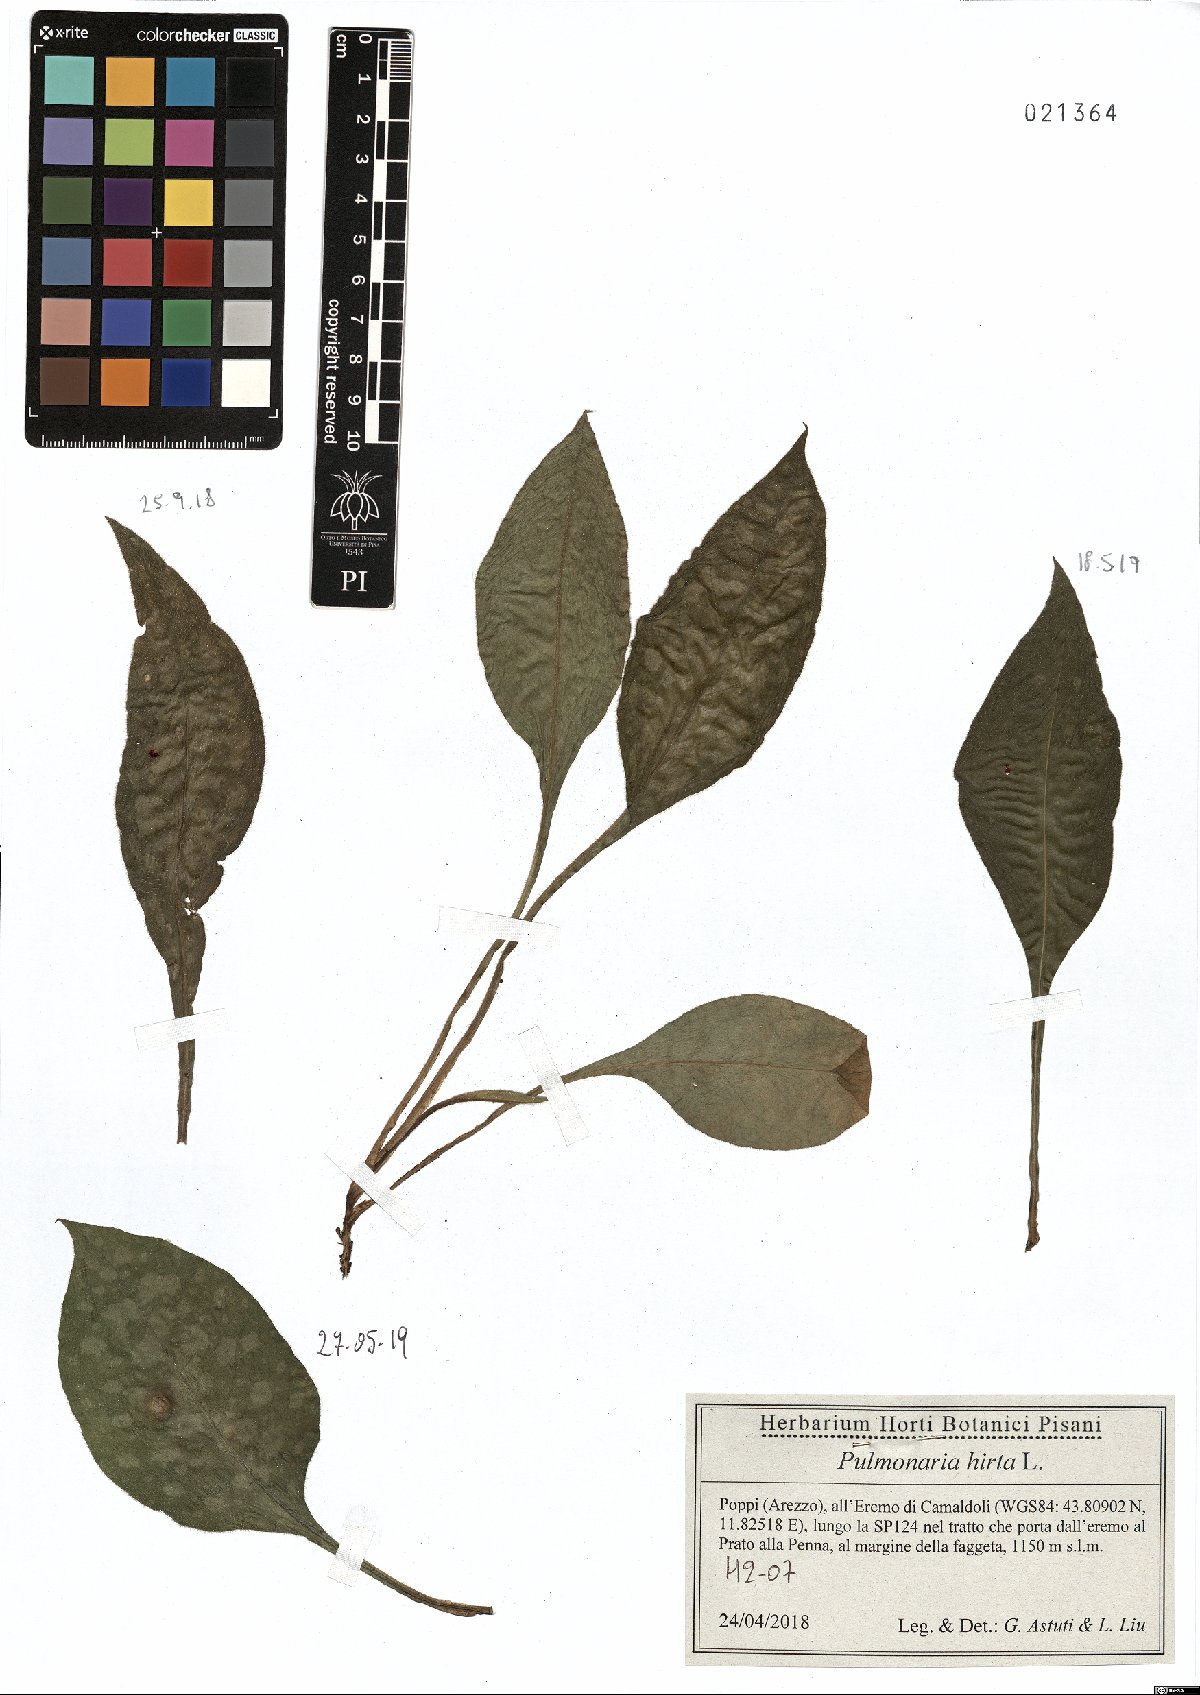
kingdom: Plantae
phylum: Tracheophyta
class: Magnoliopsida
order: Boraginales
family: Boraginaceae
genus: Pulmonaria
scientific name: Pulmonaria hirta
